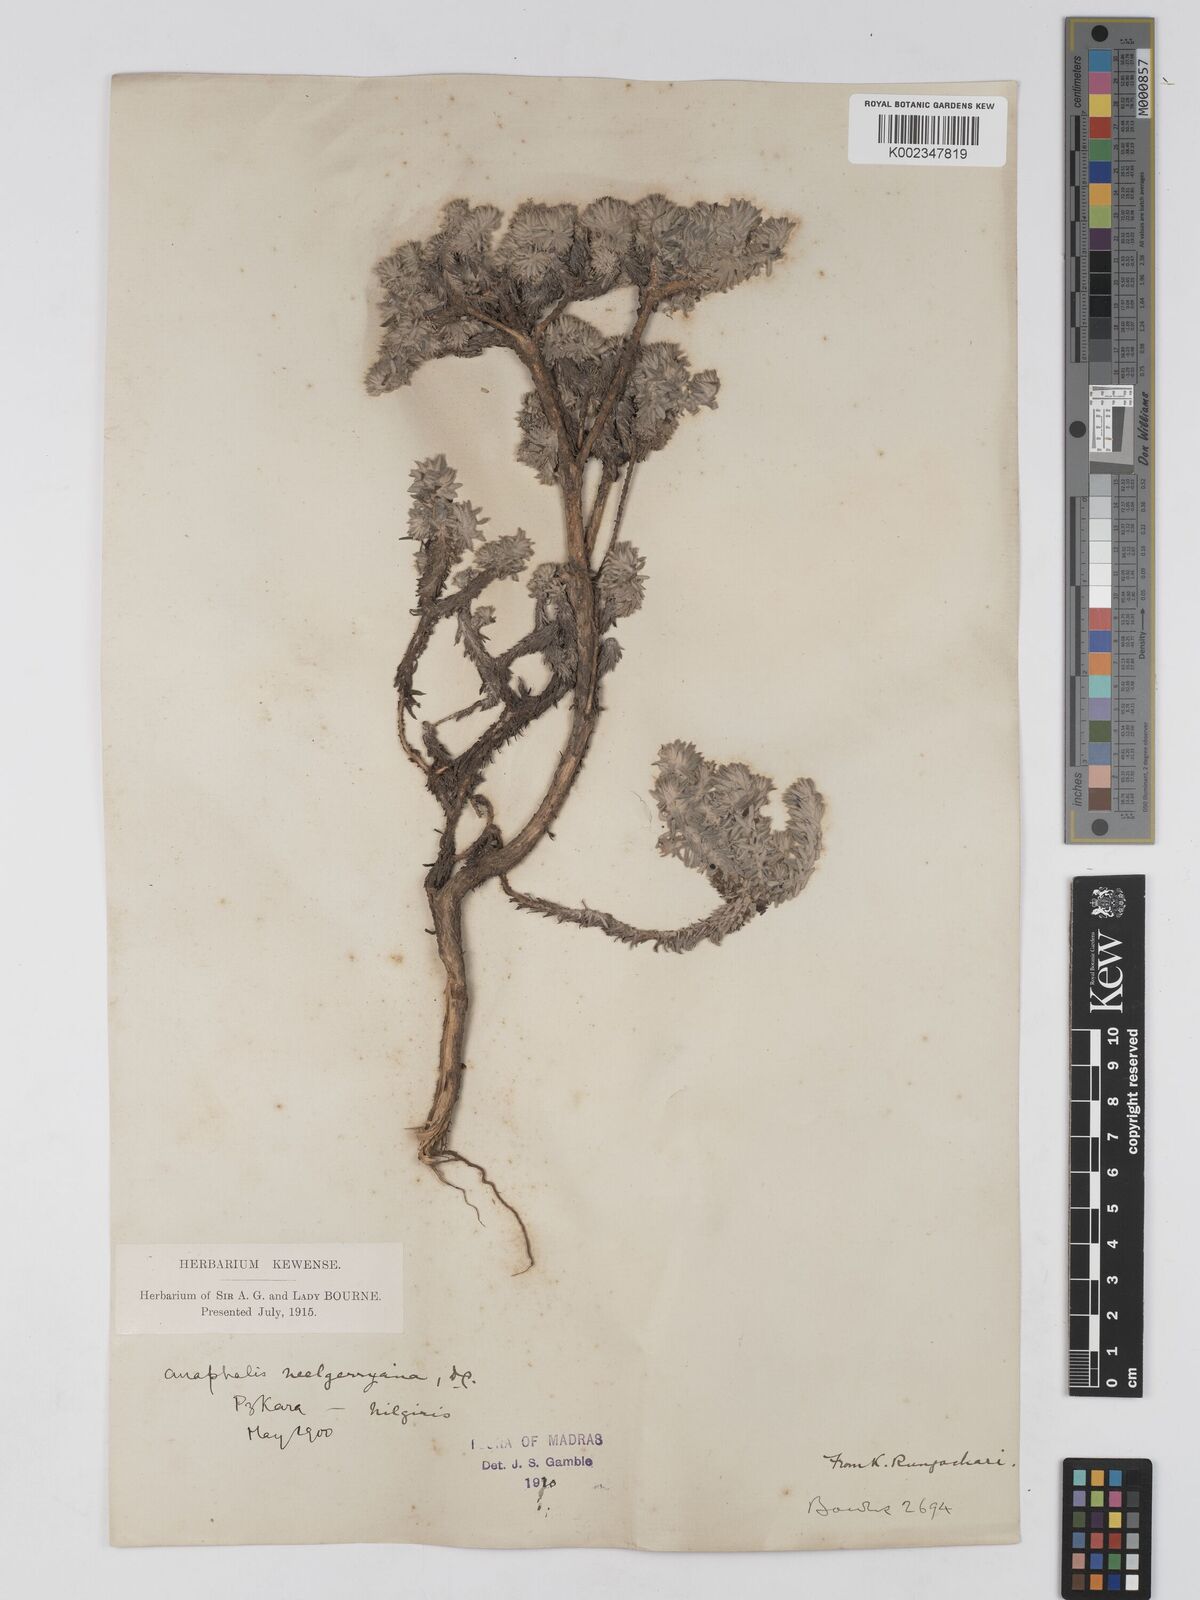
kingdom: Plantae
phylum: Tracheophyta
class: Magnoliopsida
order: Asterales
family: Asteraceae
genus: Anaphalis
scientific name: Anaphalis neelgerryana
